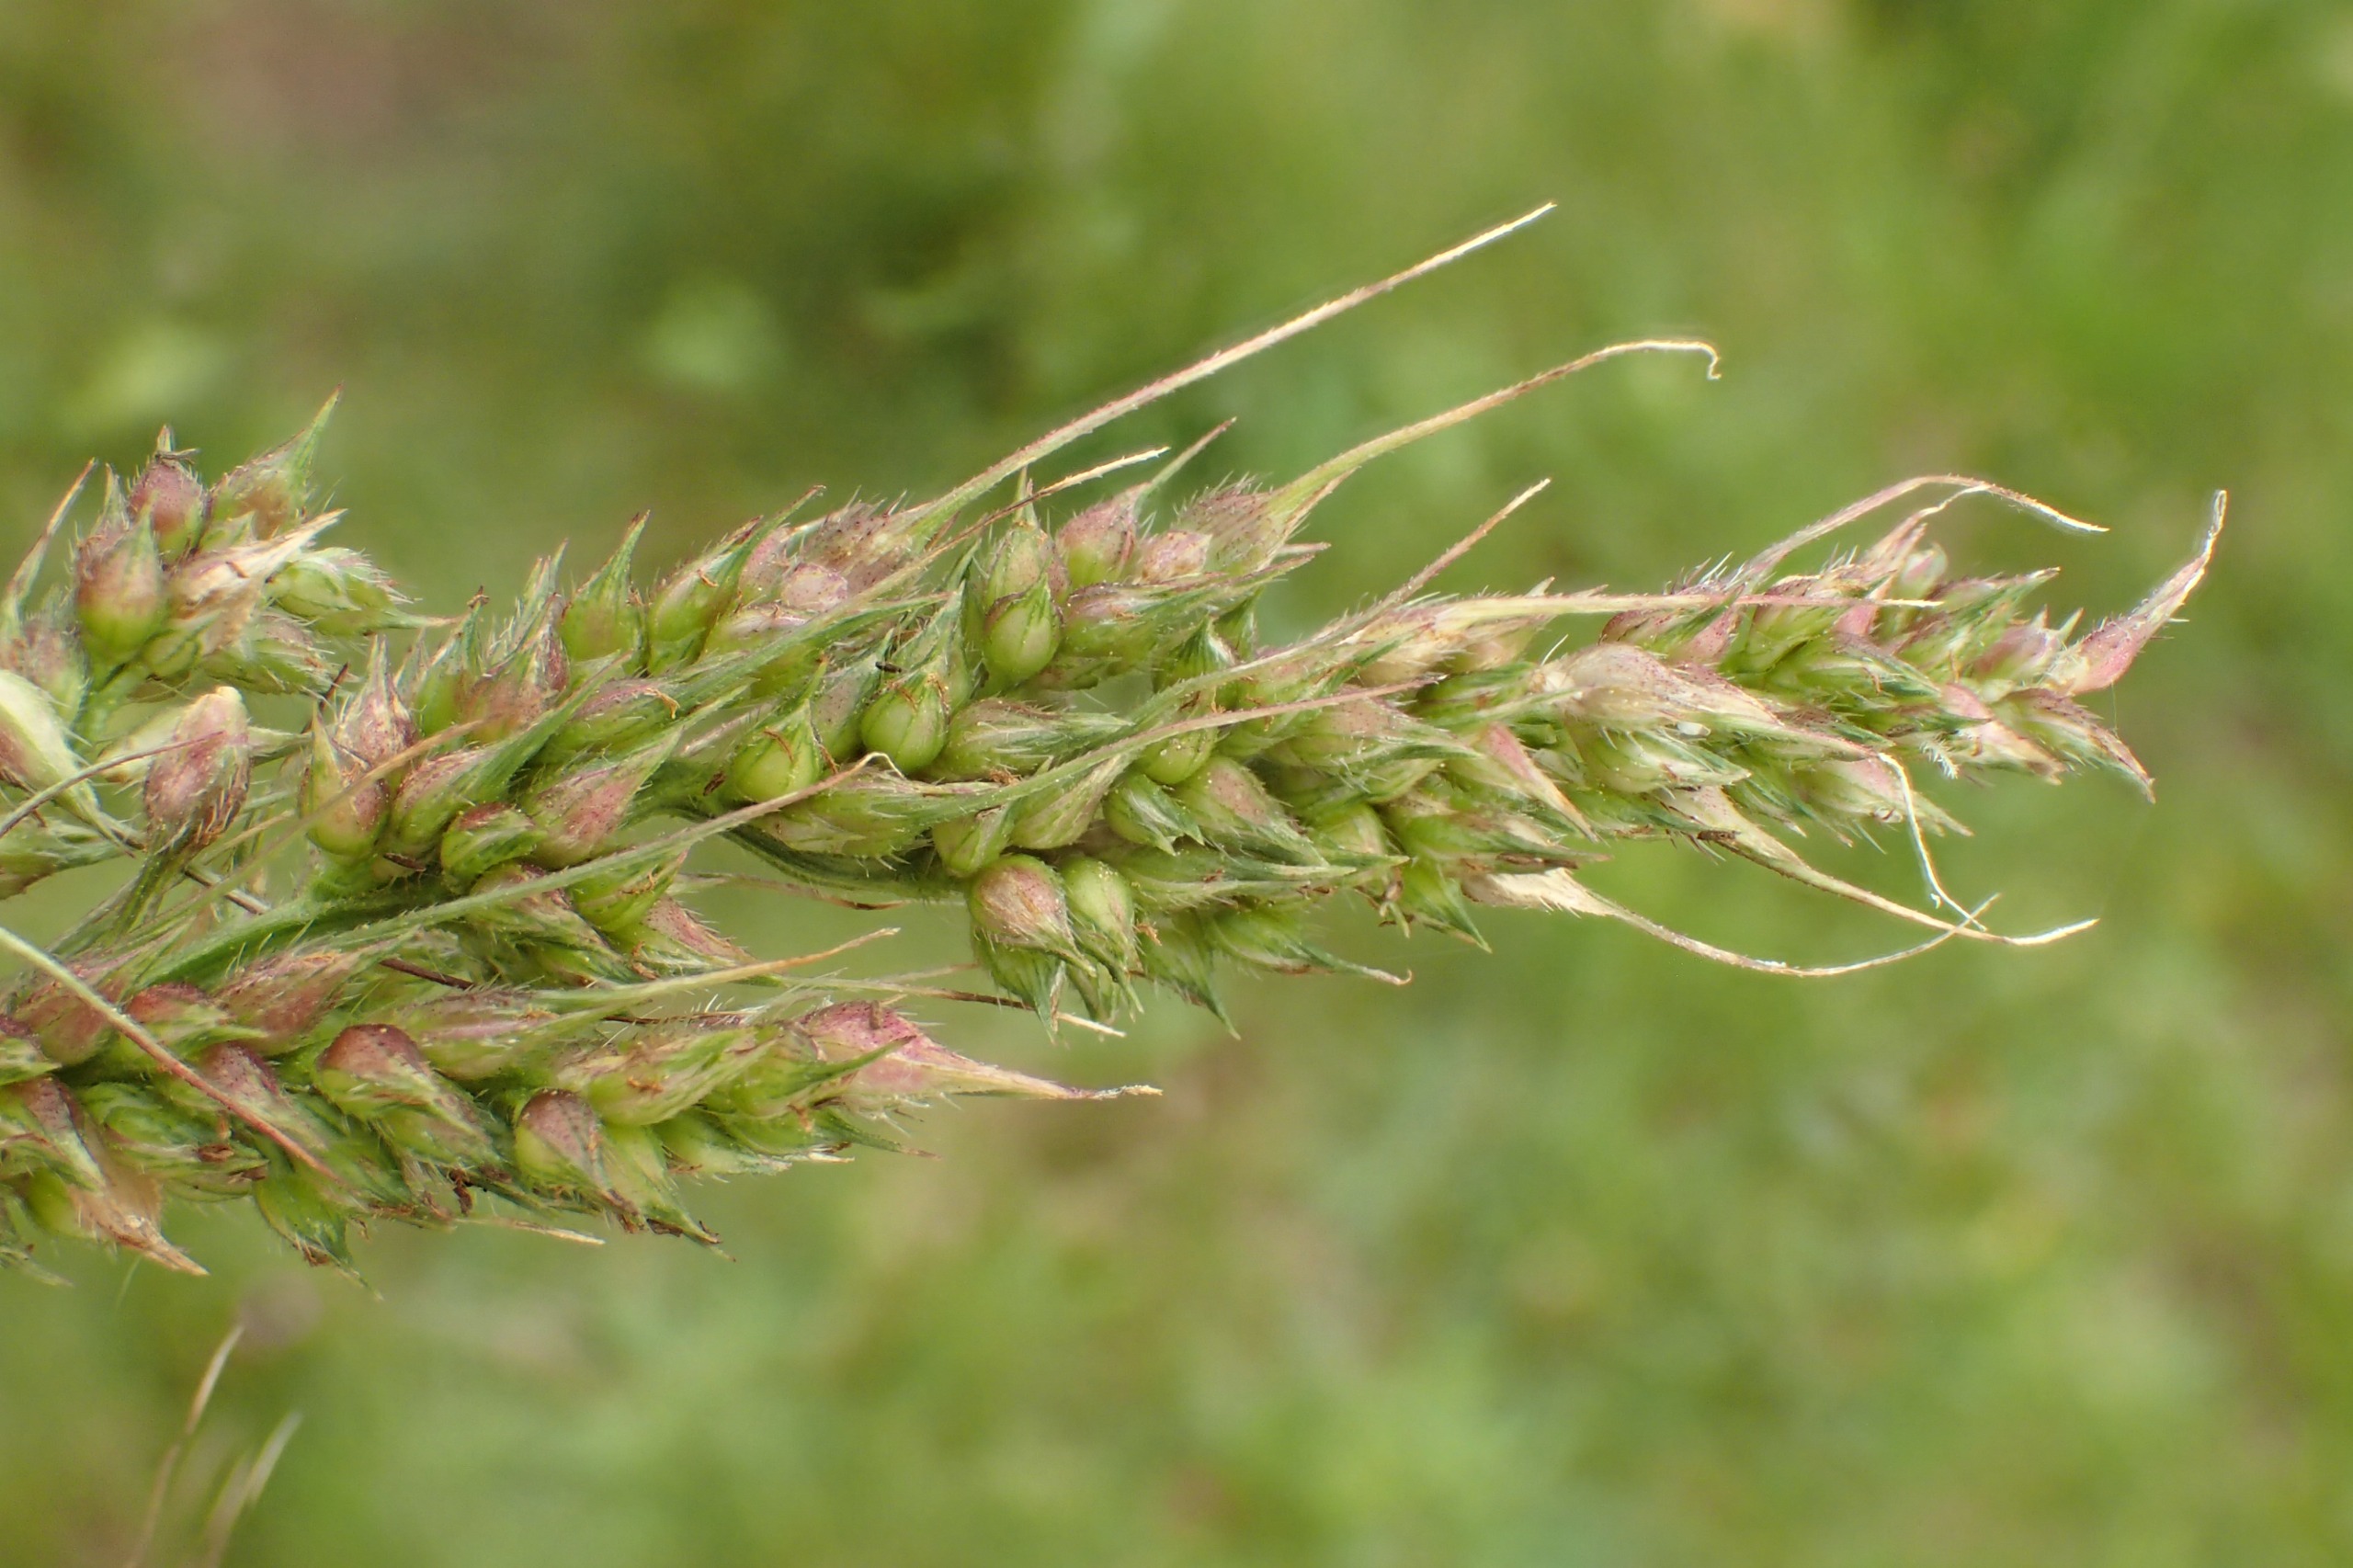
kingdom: Plantae
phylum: Tracheophyta
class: Liliopsida
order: Poales
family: Poaceae
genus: Echinochloa
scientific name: Echinochloa crus-galli
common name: Almindelig hanespore
